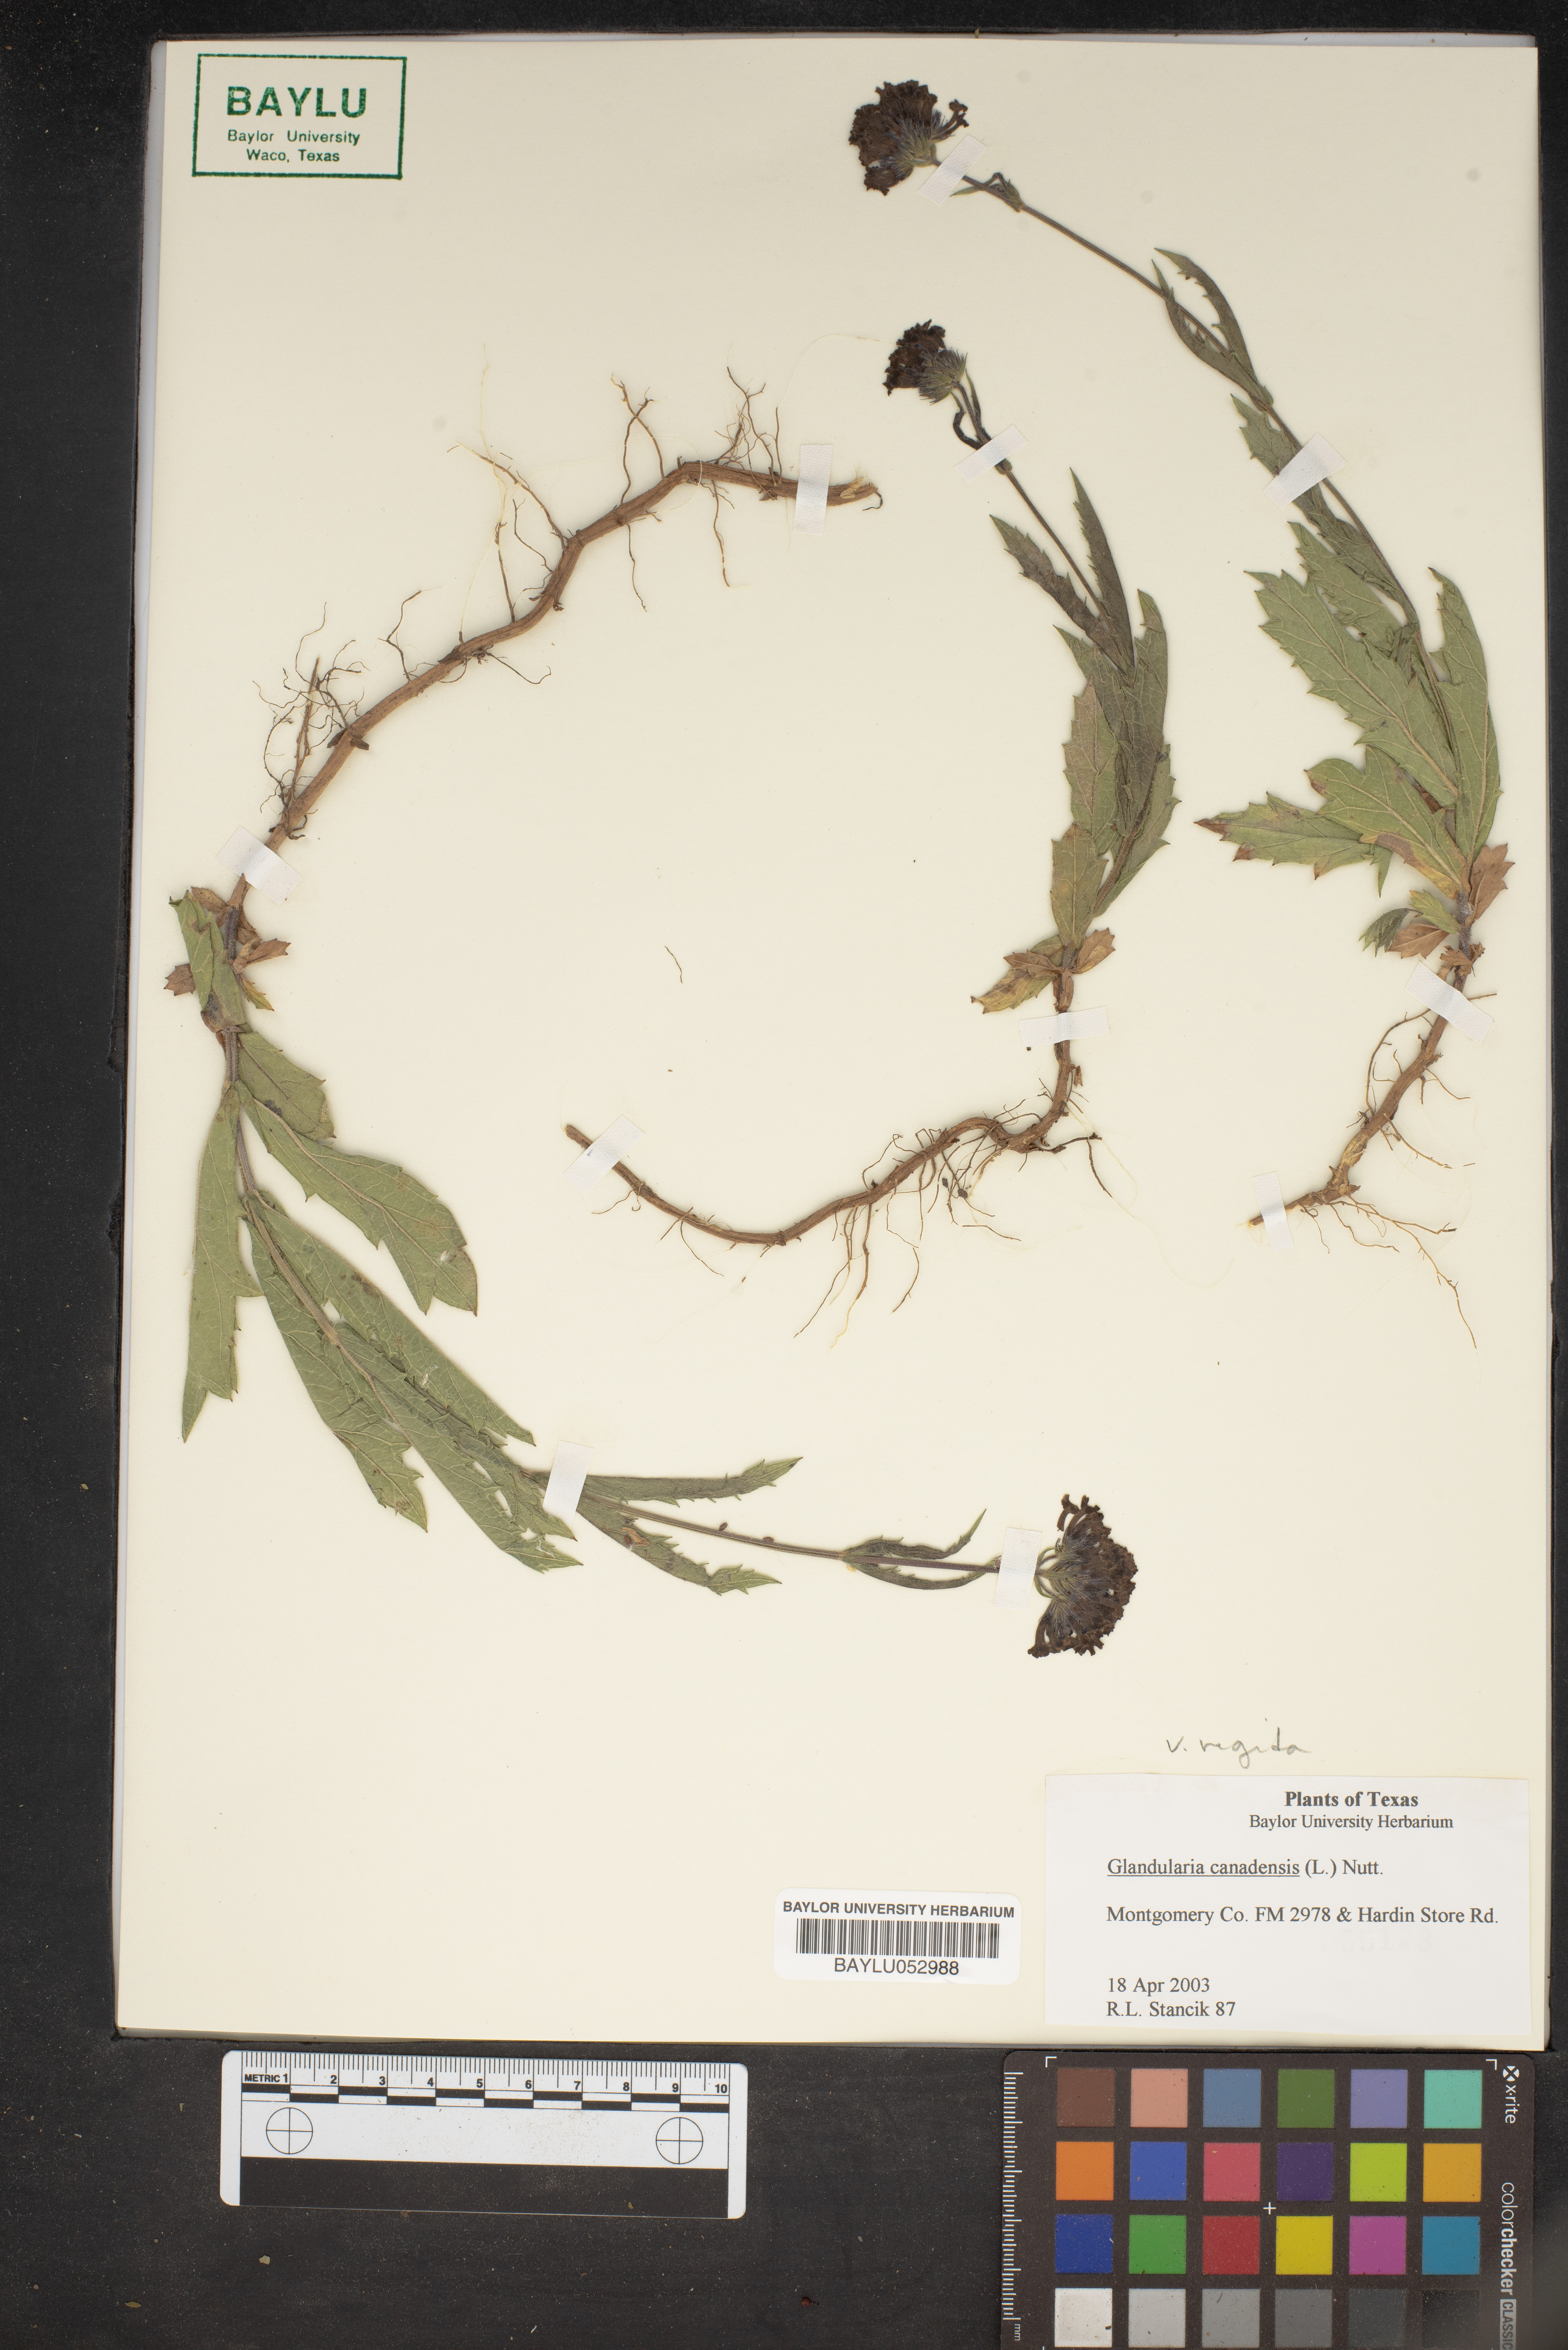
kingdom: Plantae
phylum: Tracheophyta
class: Magnoliopsida
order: Lamiales
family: Verbenaceae
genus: Verbena
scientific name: Verbena canadensis
